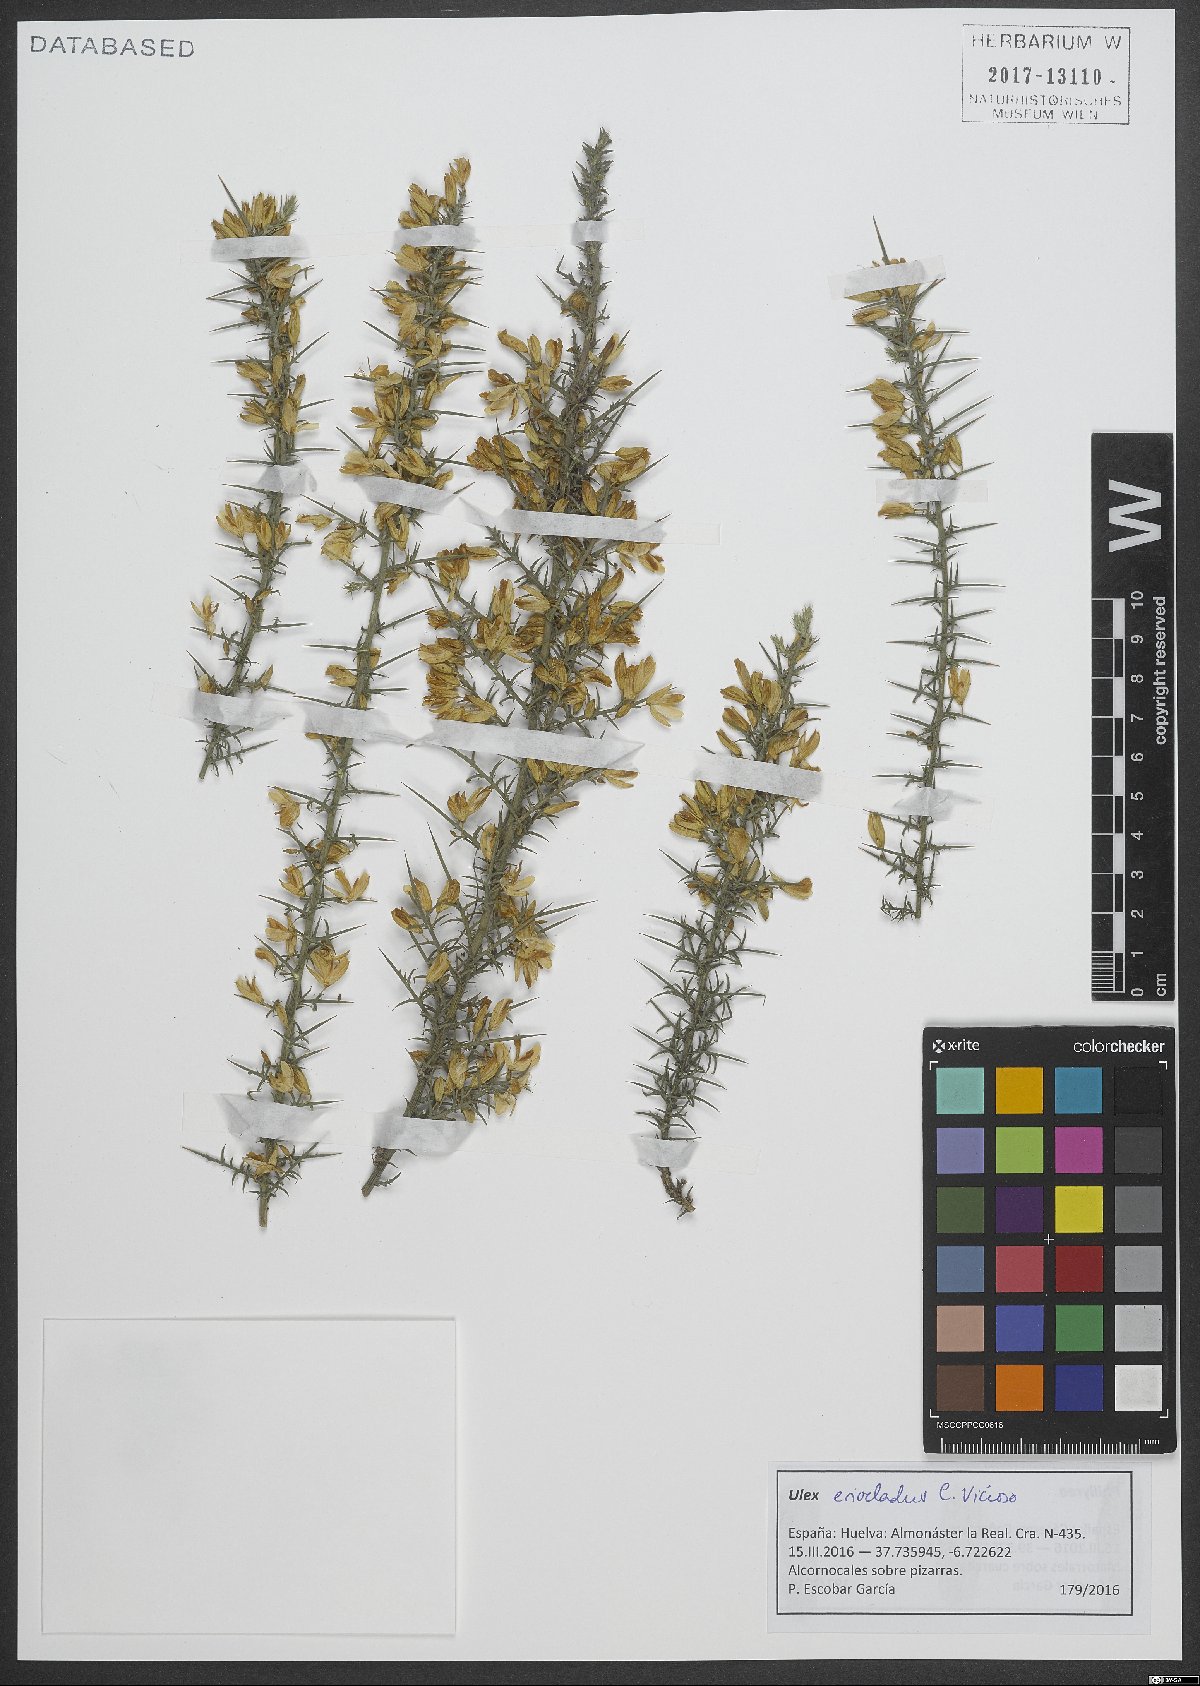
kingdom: Plantae
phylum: Tracheophyta
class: Magnoliopsida
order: Fabales
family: Fabaceae
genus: Ulex
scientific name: Ulex eriocladus
